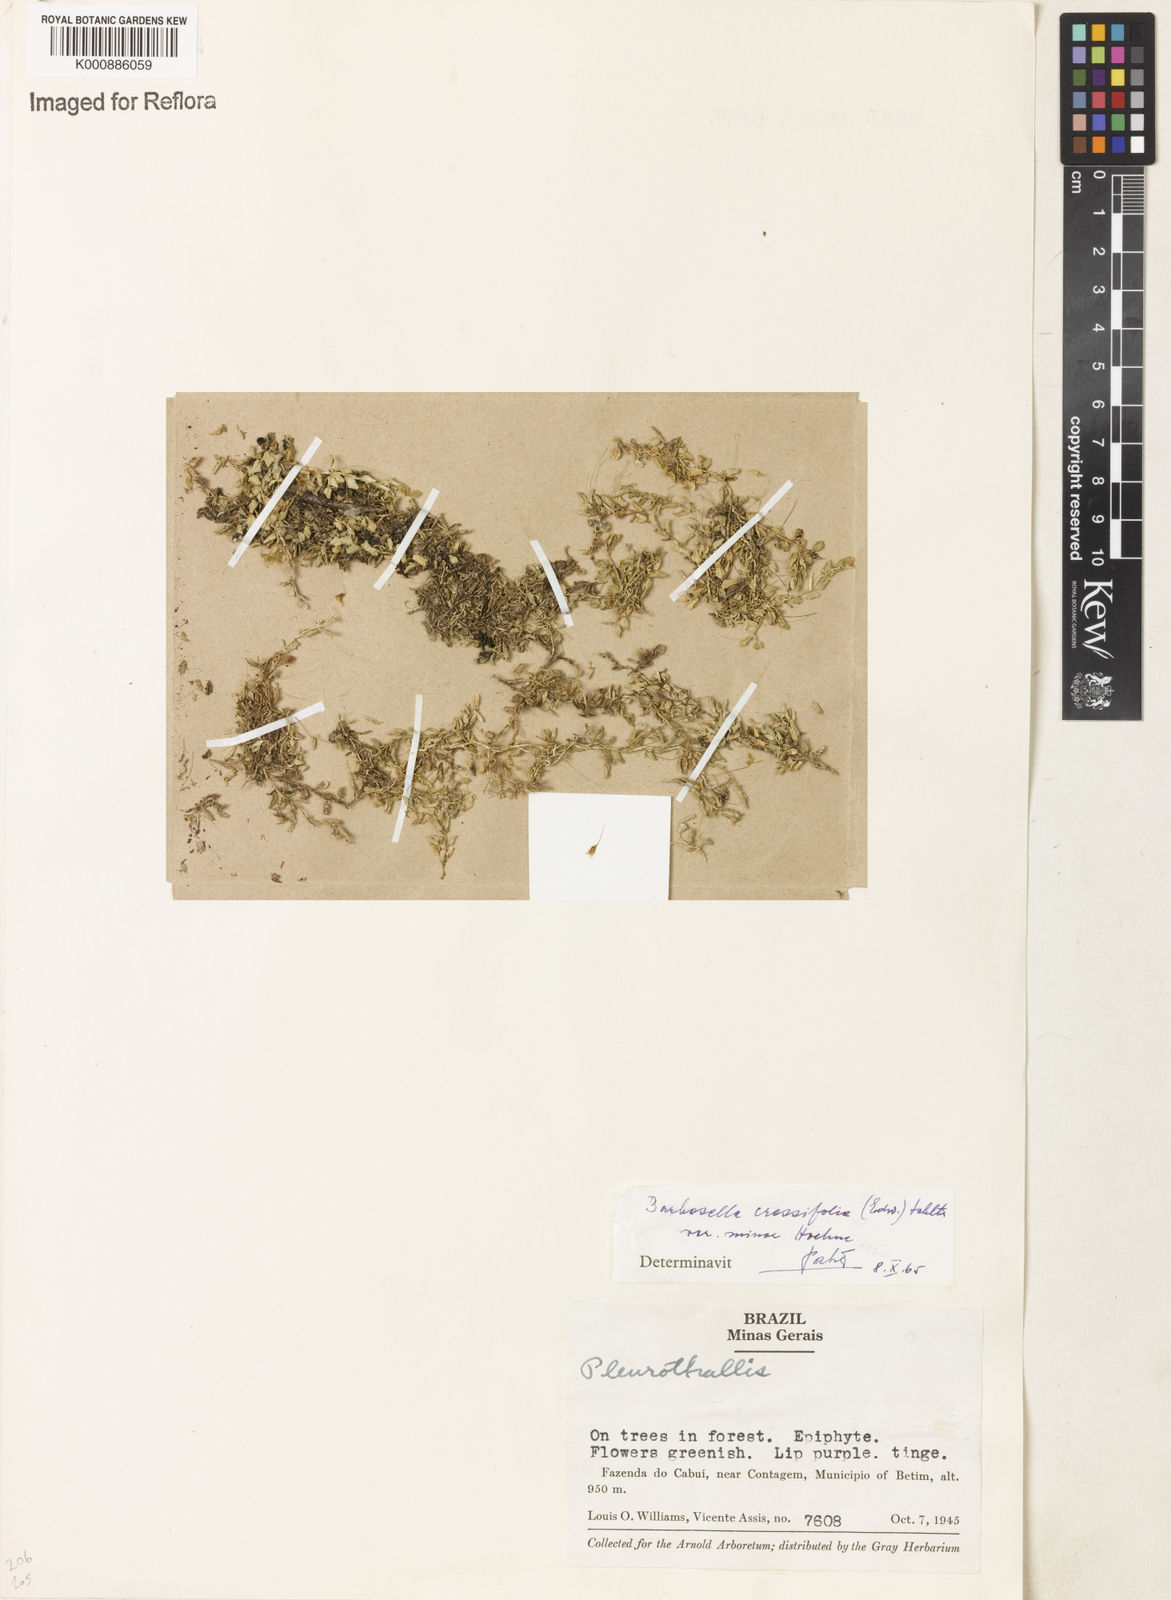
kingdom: Plantae
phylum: Tracheophyta
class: Liliopsida
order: Asparagales
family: Orchidaceae
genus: Barbosella
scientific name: Barbosella crassifolia
